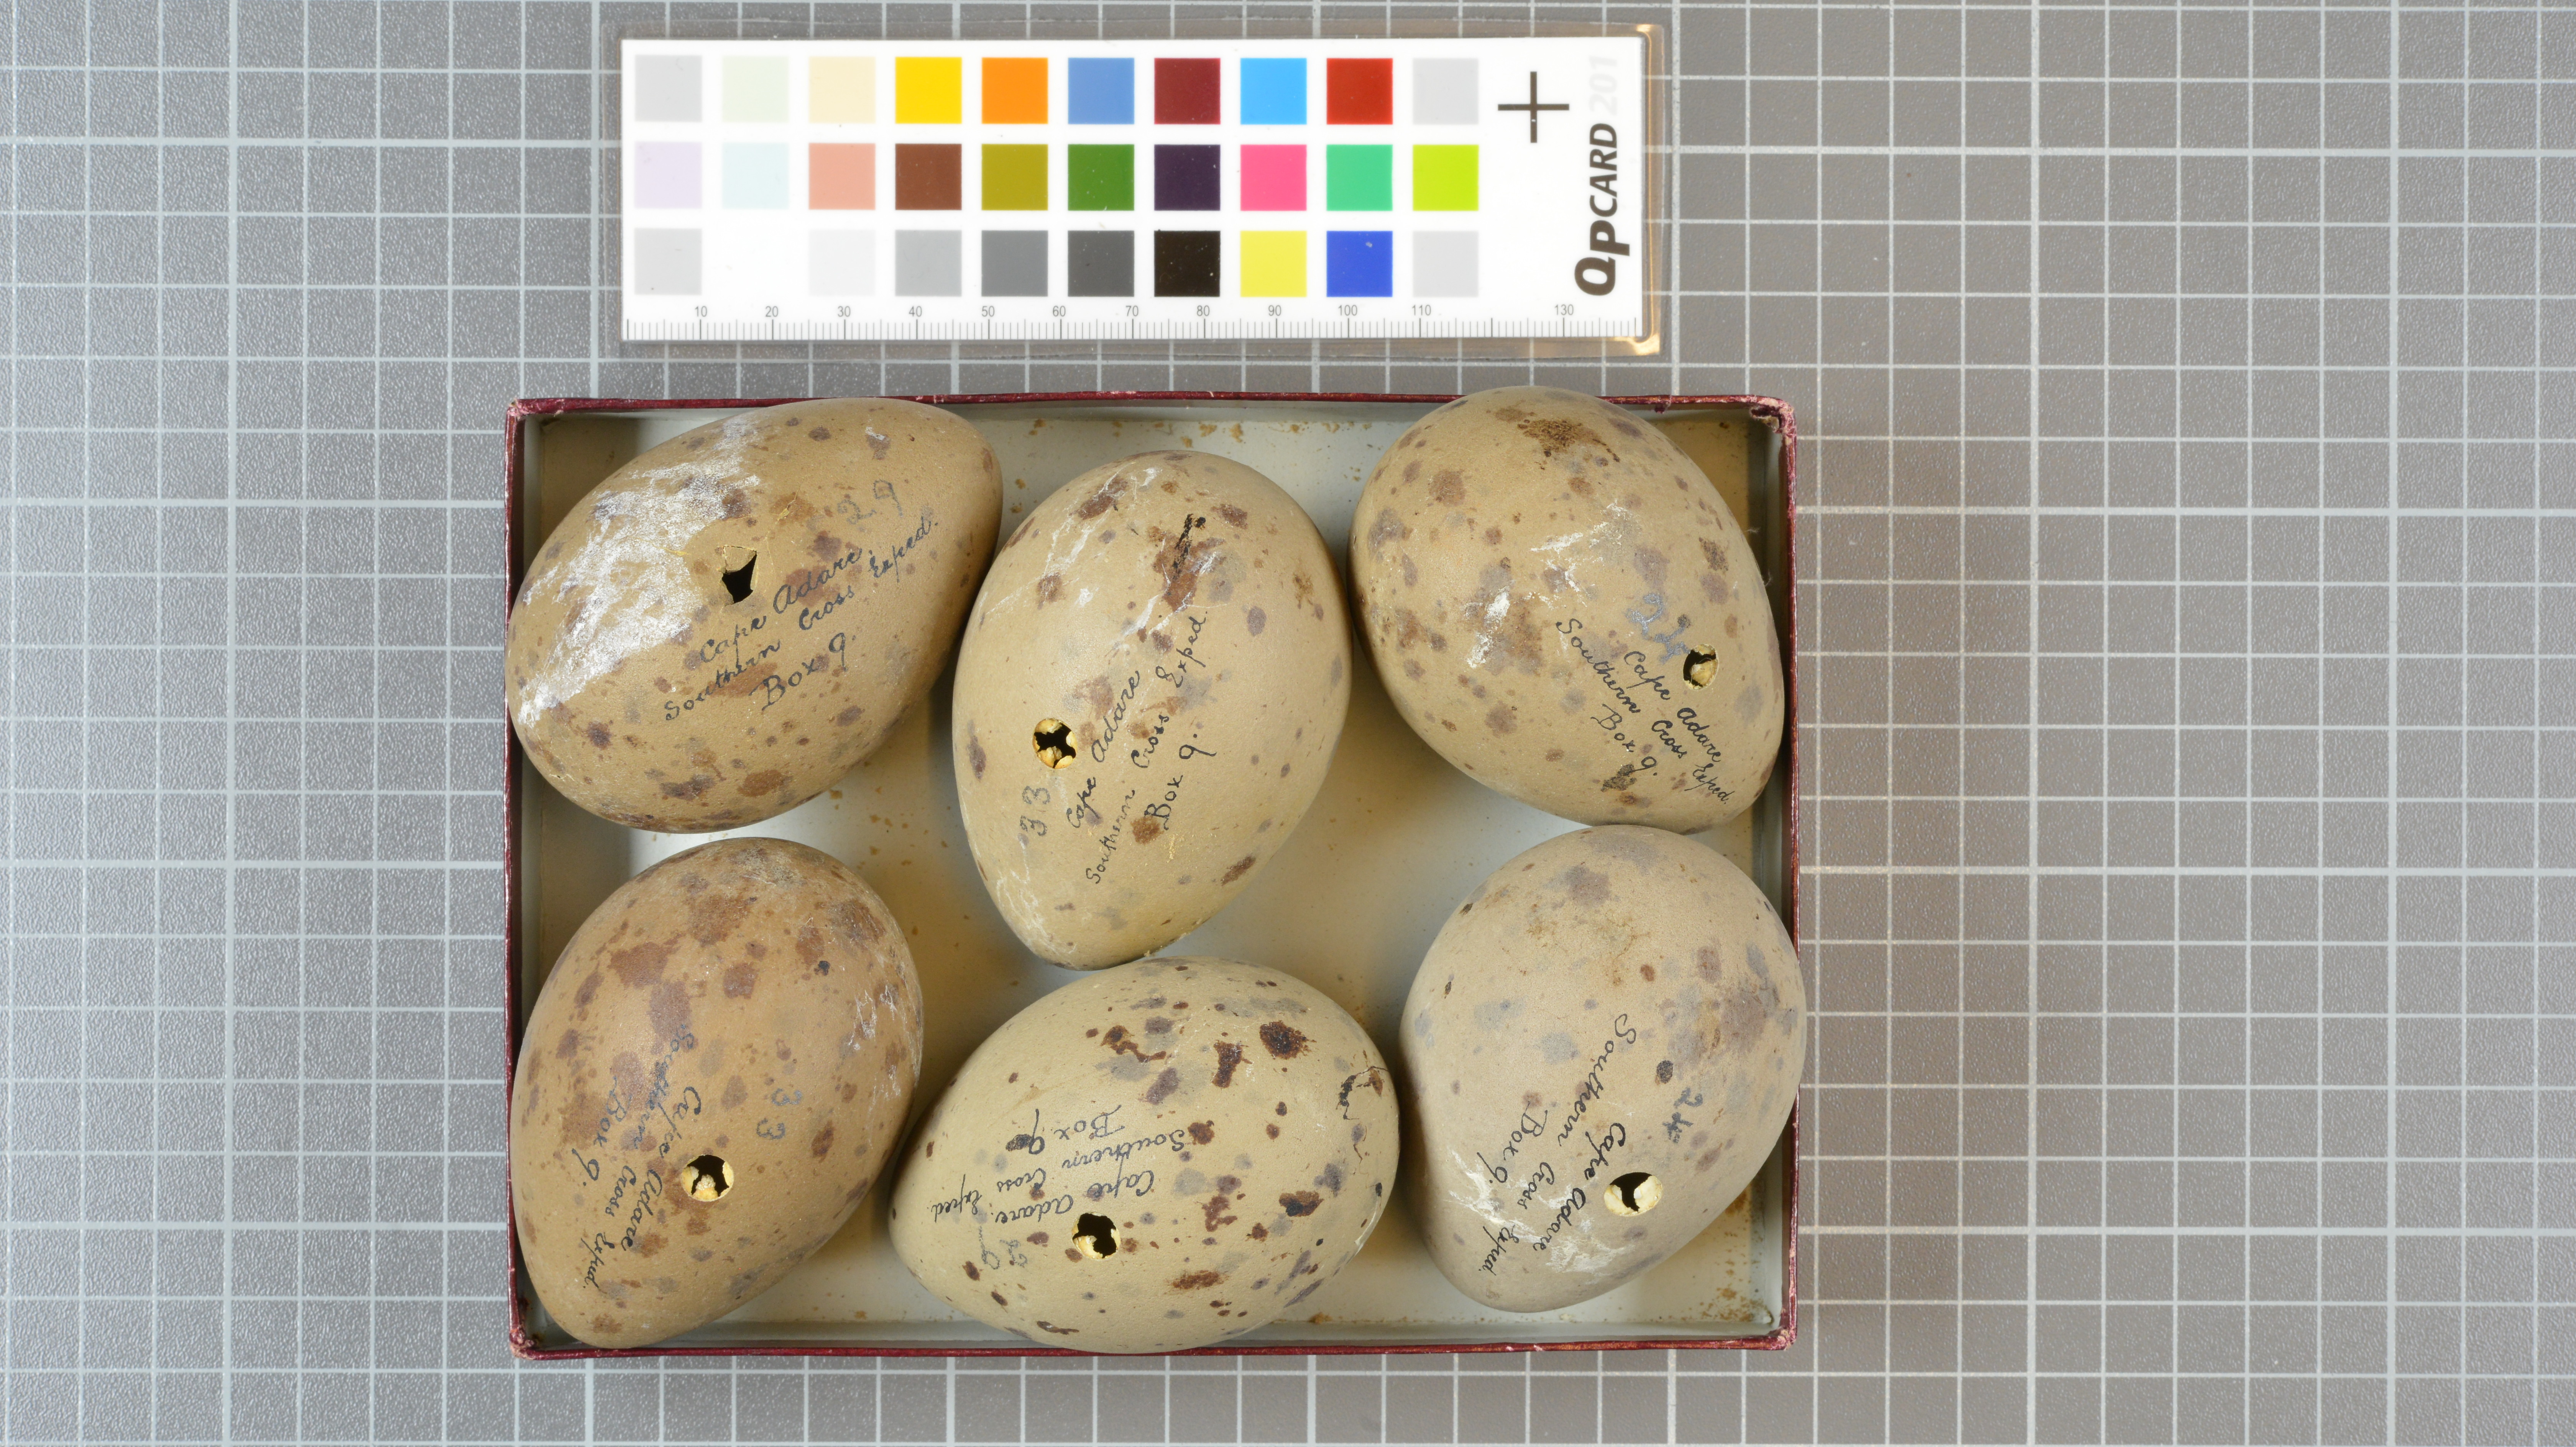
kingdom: Animalia
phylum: Chordata
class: Aves
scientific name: Aves
